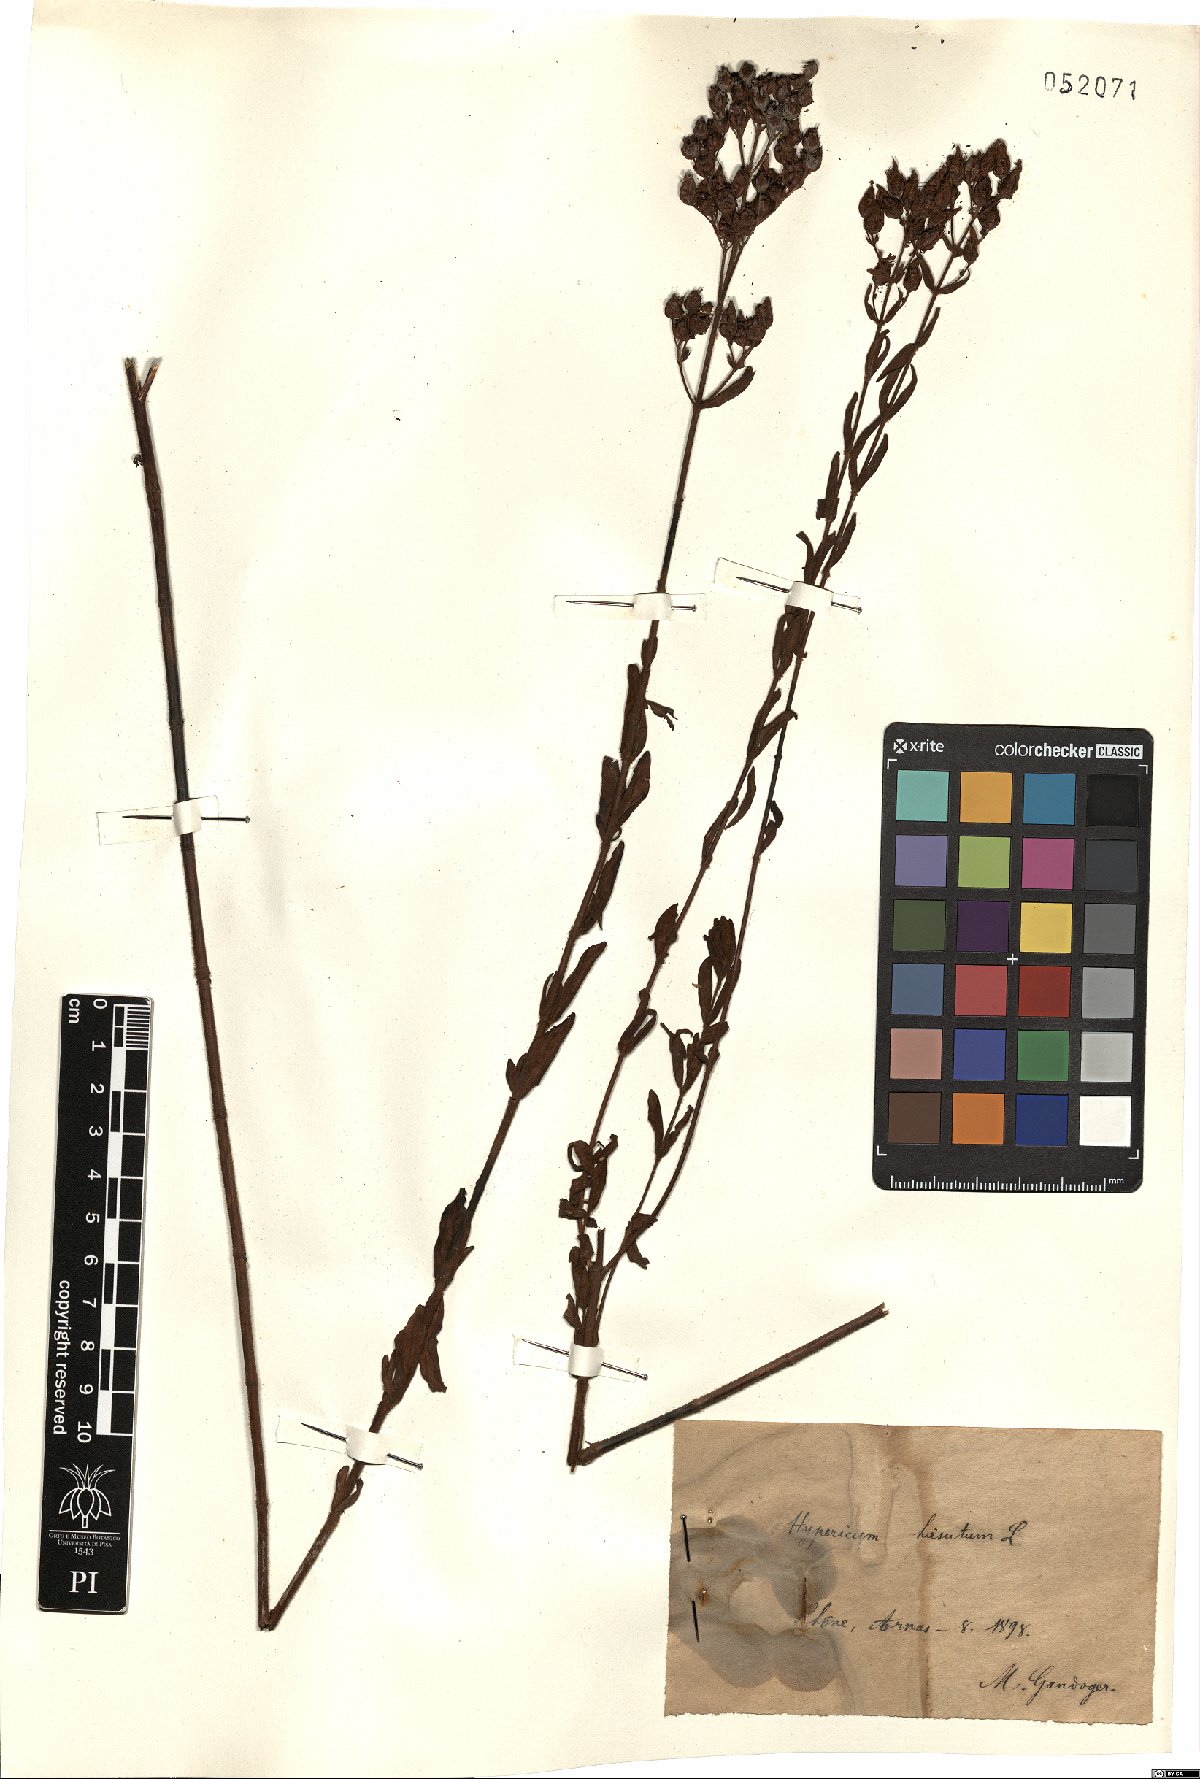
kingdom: Plantae
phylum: Tracheophyta
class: Magnoliopsida
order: Malpighiales
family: Hypericaceae
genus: Hypericum
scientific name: Hypericum hirsutum
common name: Hairy st. john's-wort
